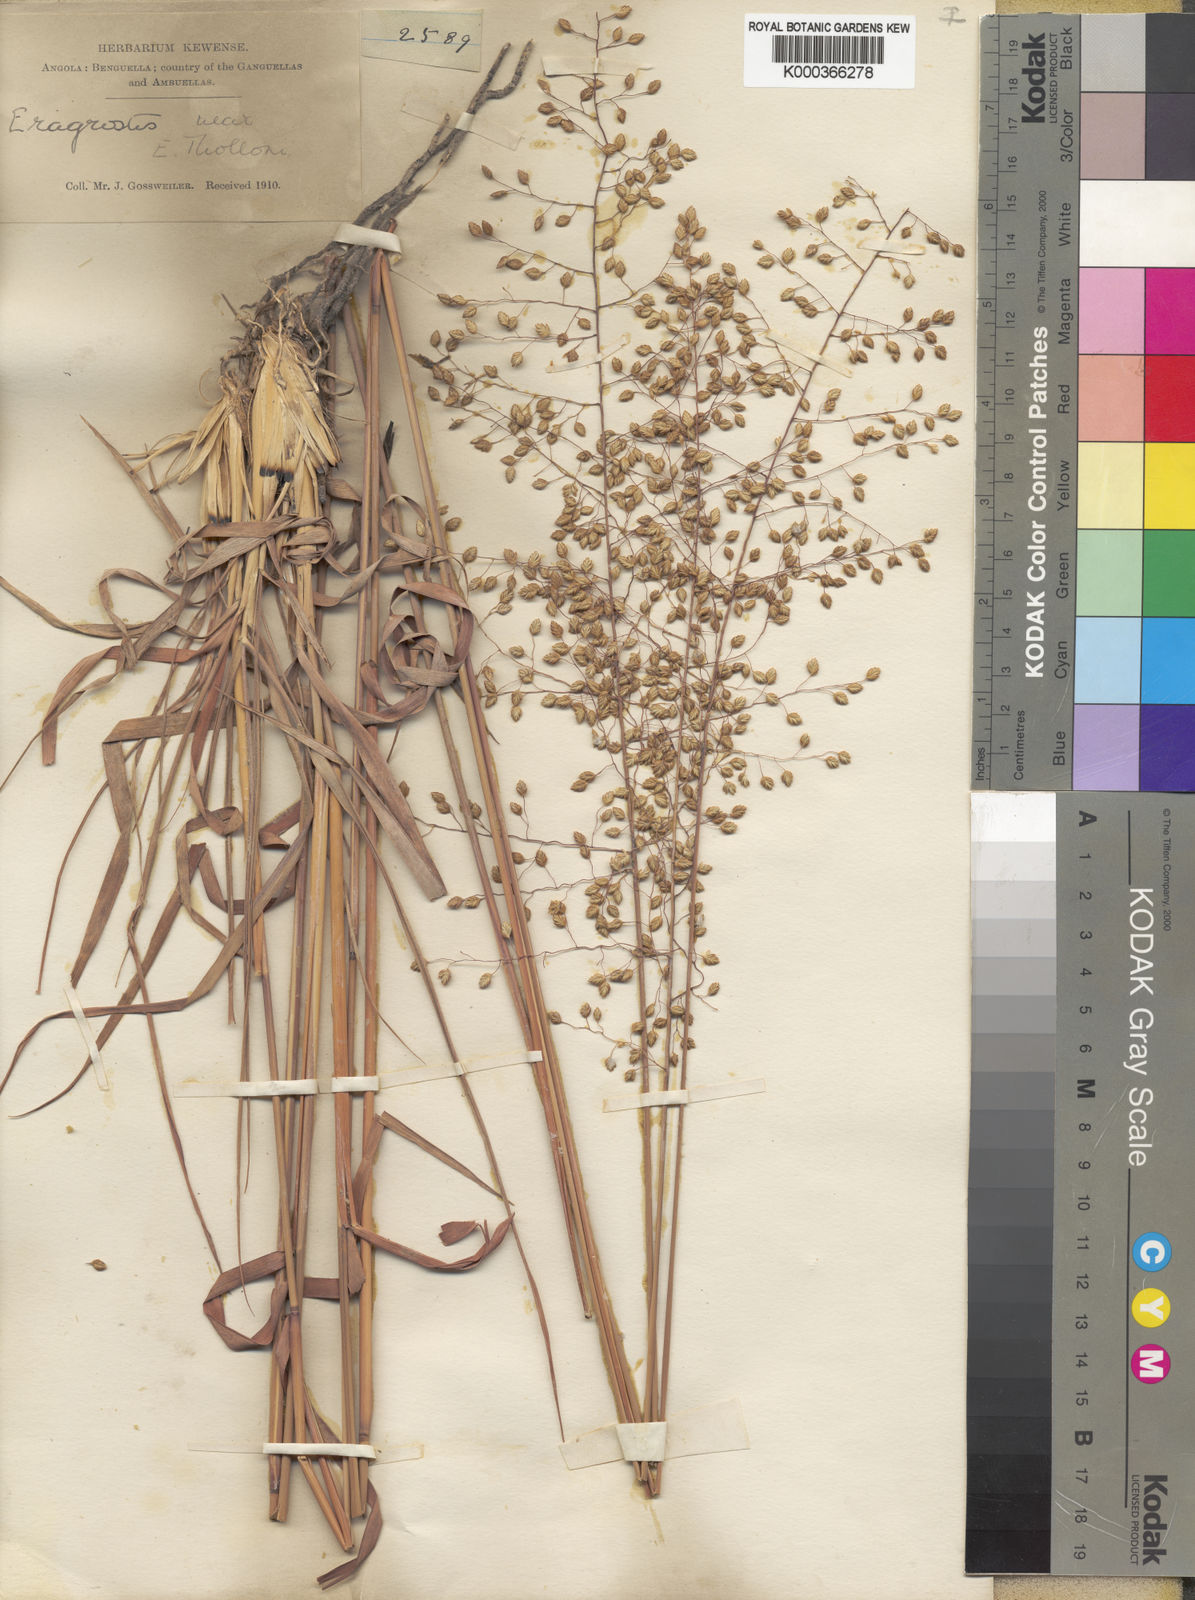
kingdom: Plantae
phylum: Tracheophyta
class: Liliopsida
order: Poales
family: Poaceae
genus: Eragrostis
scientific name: Eragrostis cimicina
